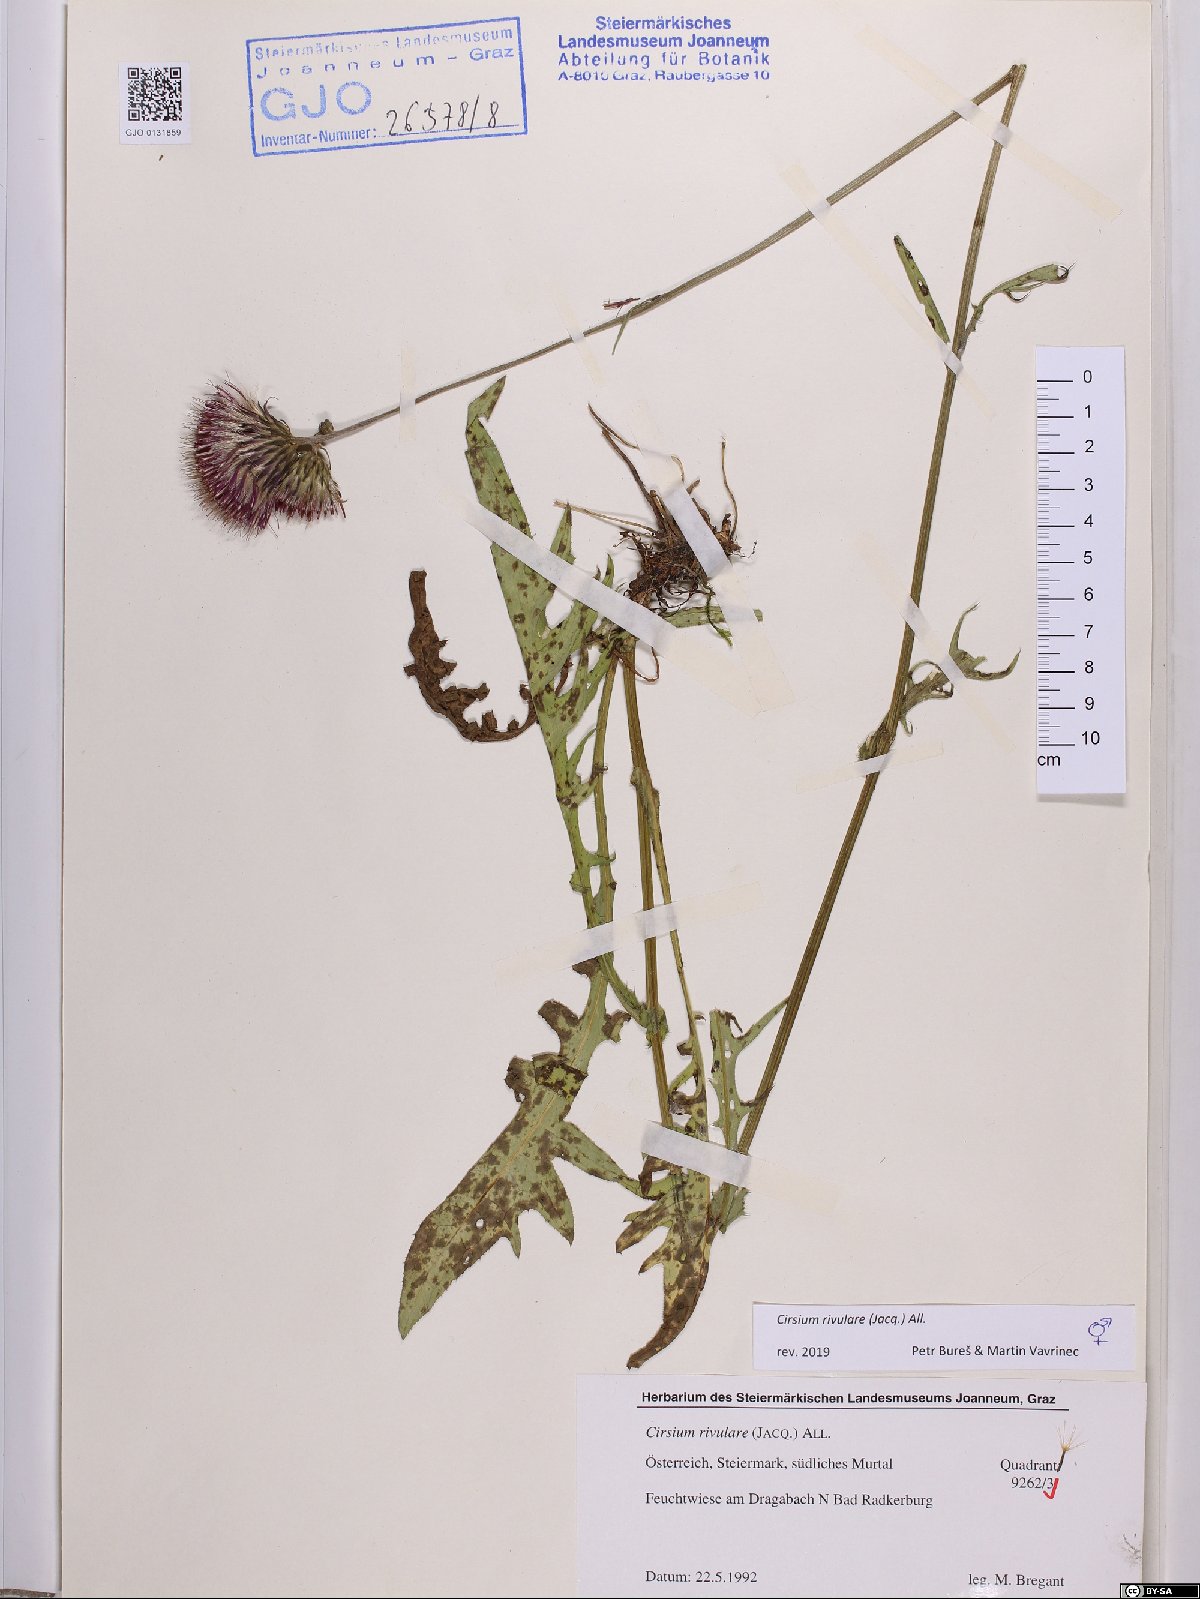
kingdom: Plantae
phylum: Tracheophyta
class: Magnoliopsida
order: Asterales
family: Asteraceae
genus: Cirsium
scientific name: Cirsium rivulare
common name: Brook thistle
